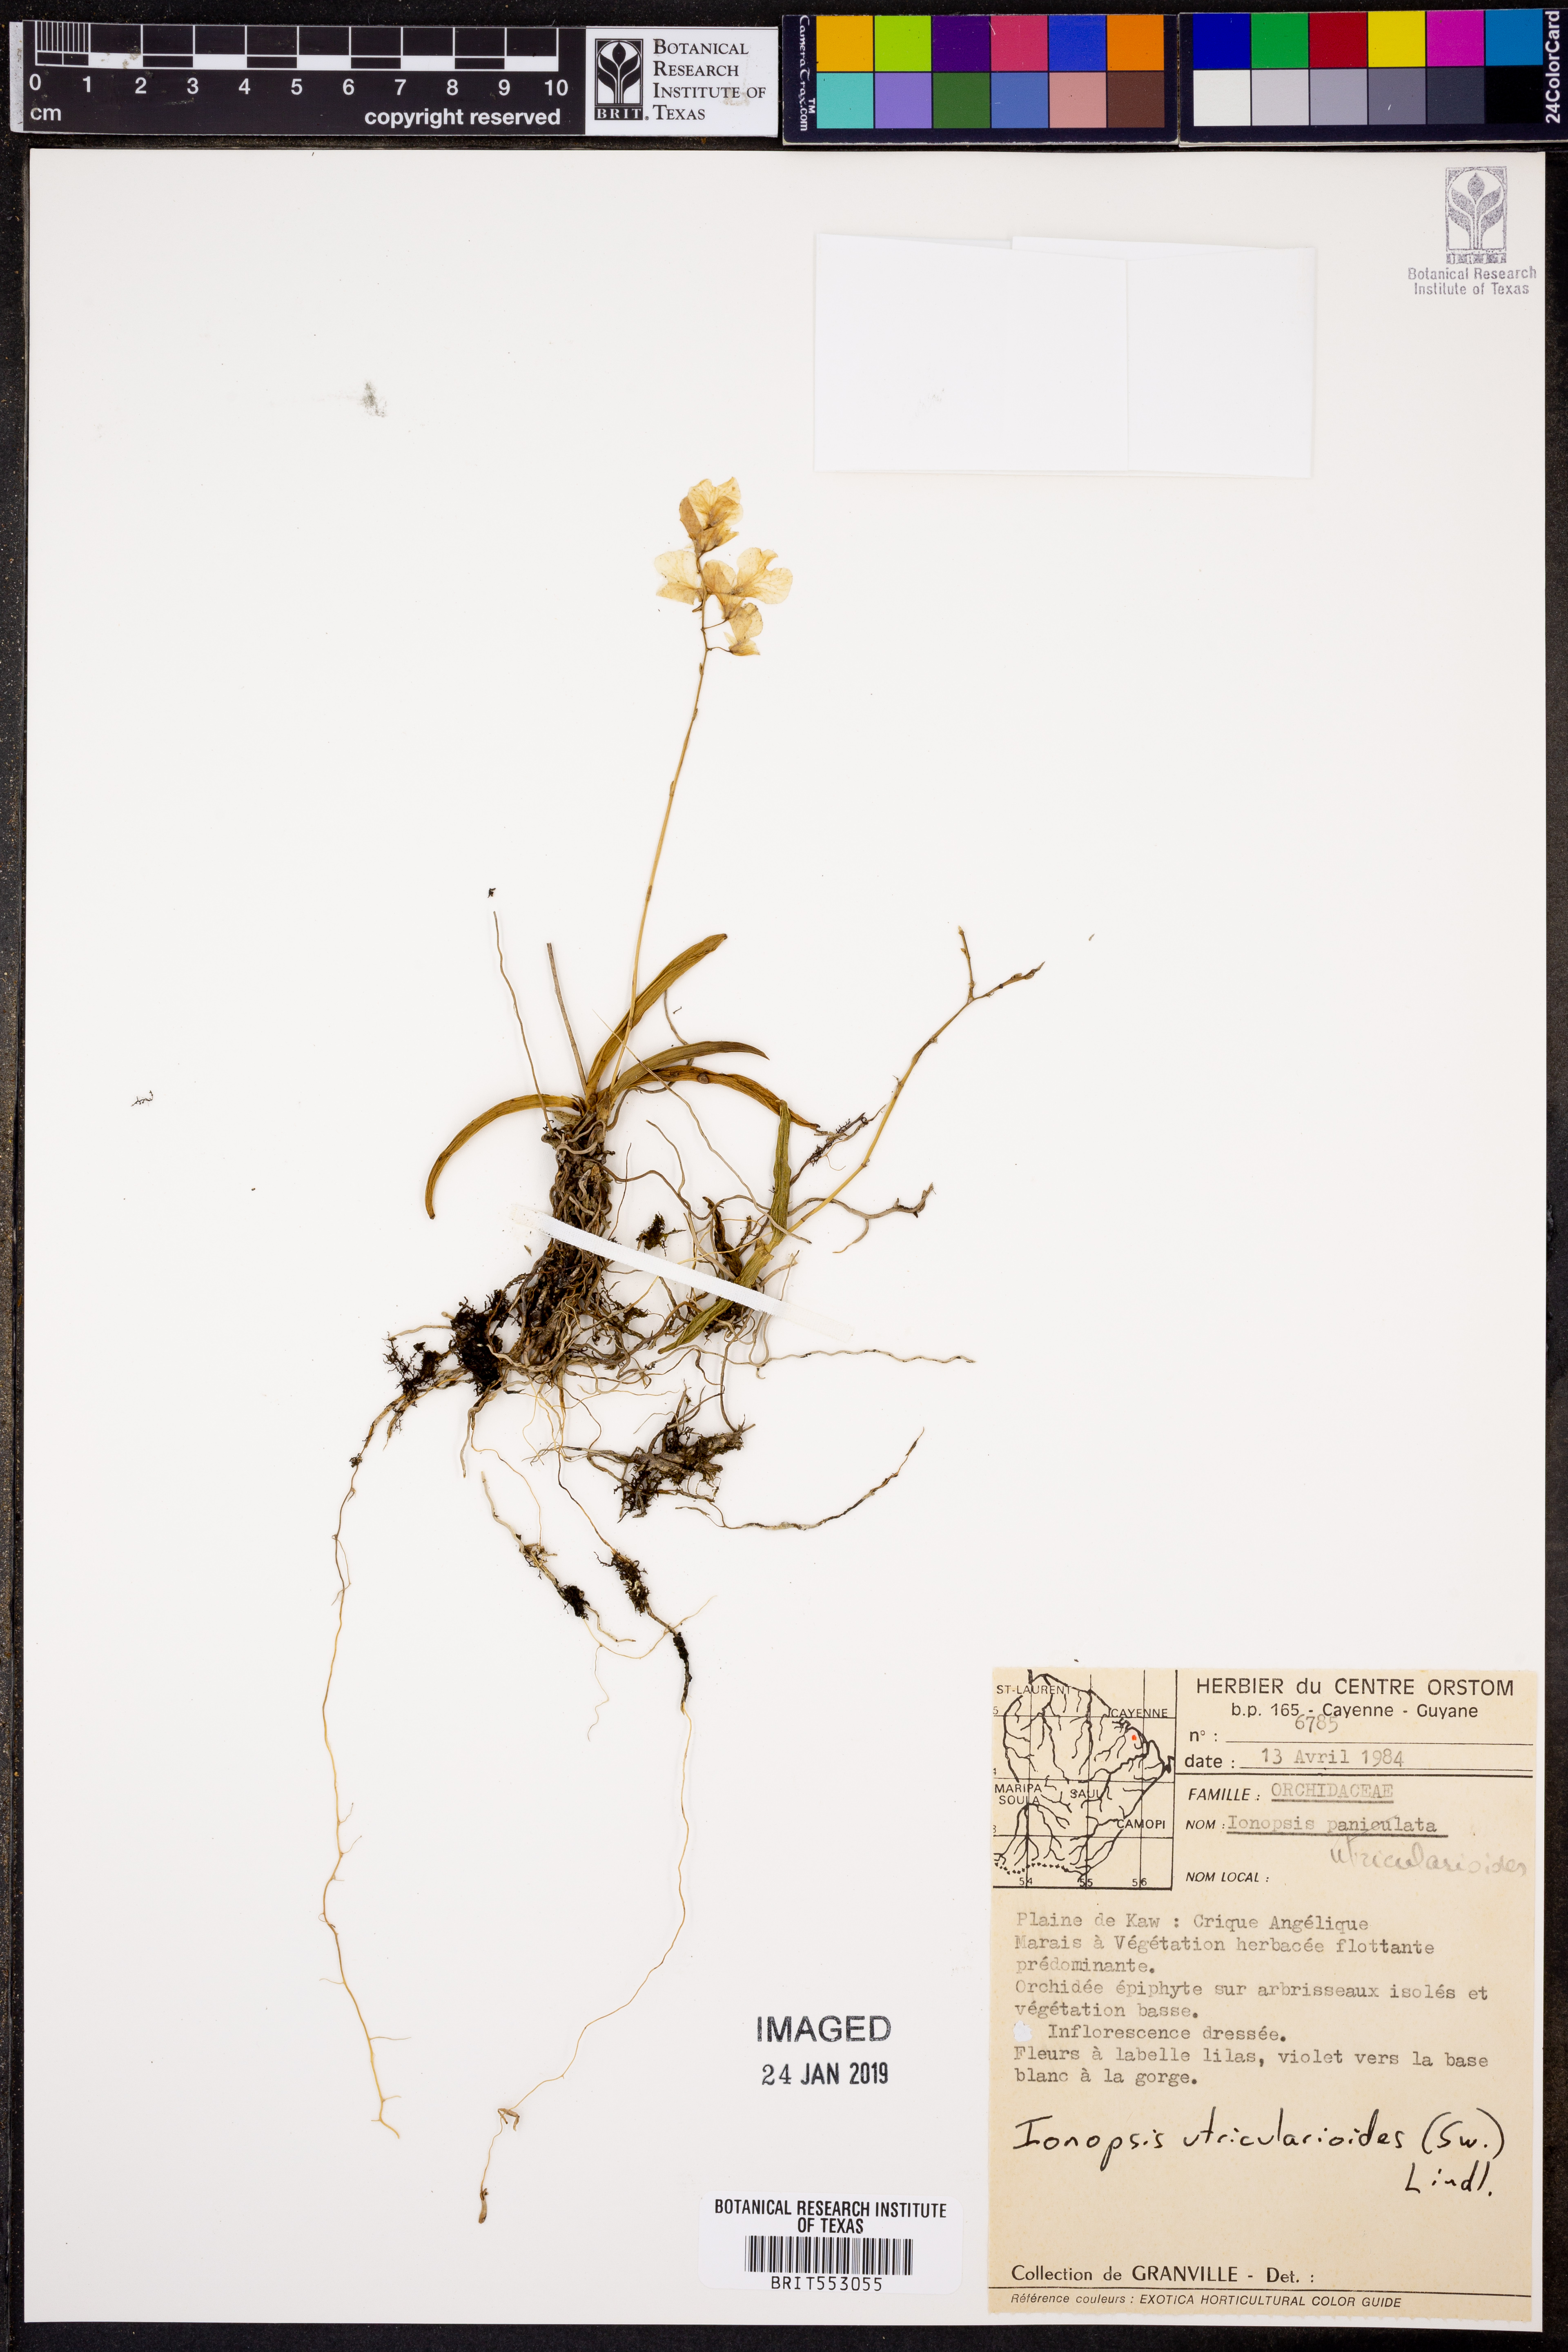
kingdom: Plantae
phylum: Tracheophyta
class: Liliopsida
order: Asparagales
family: Orchidaceae
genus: Ionopsis
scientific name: Ionopsis utricularioides
